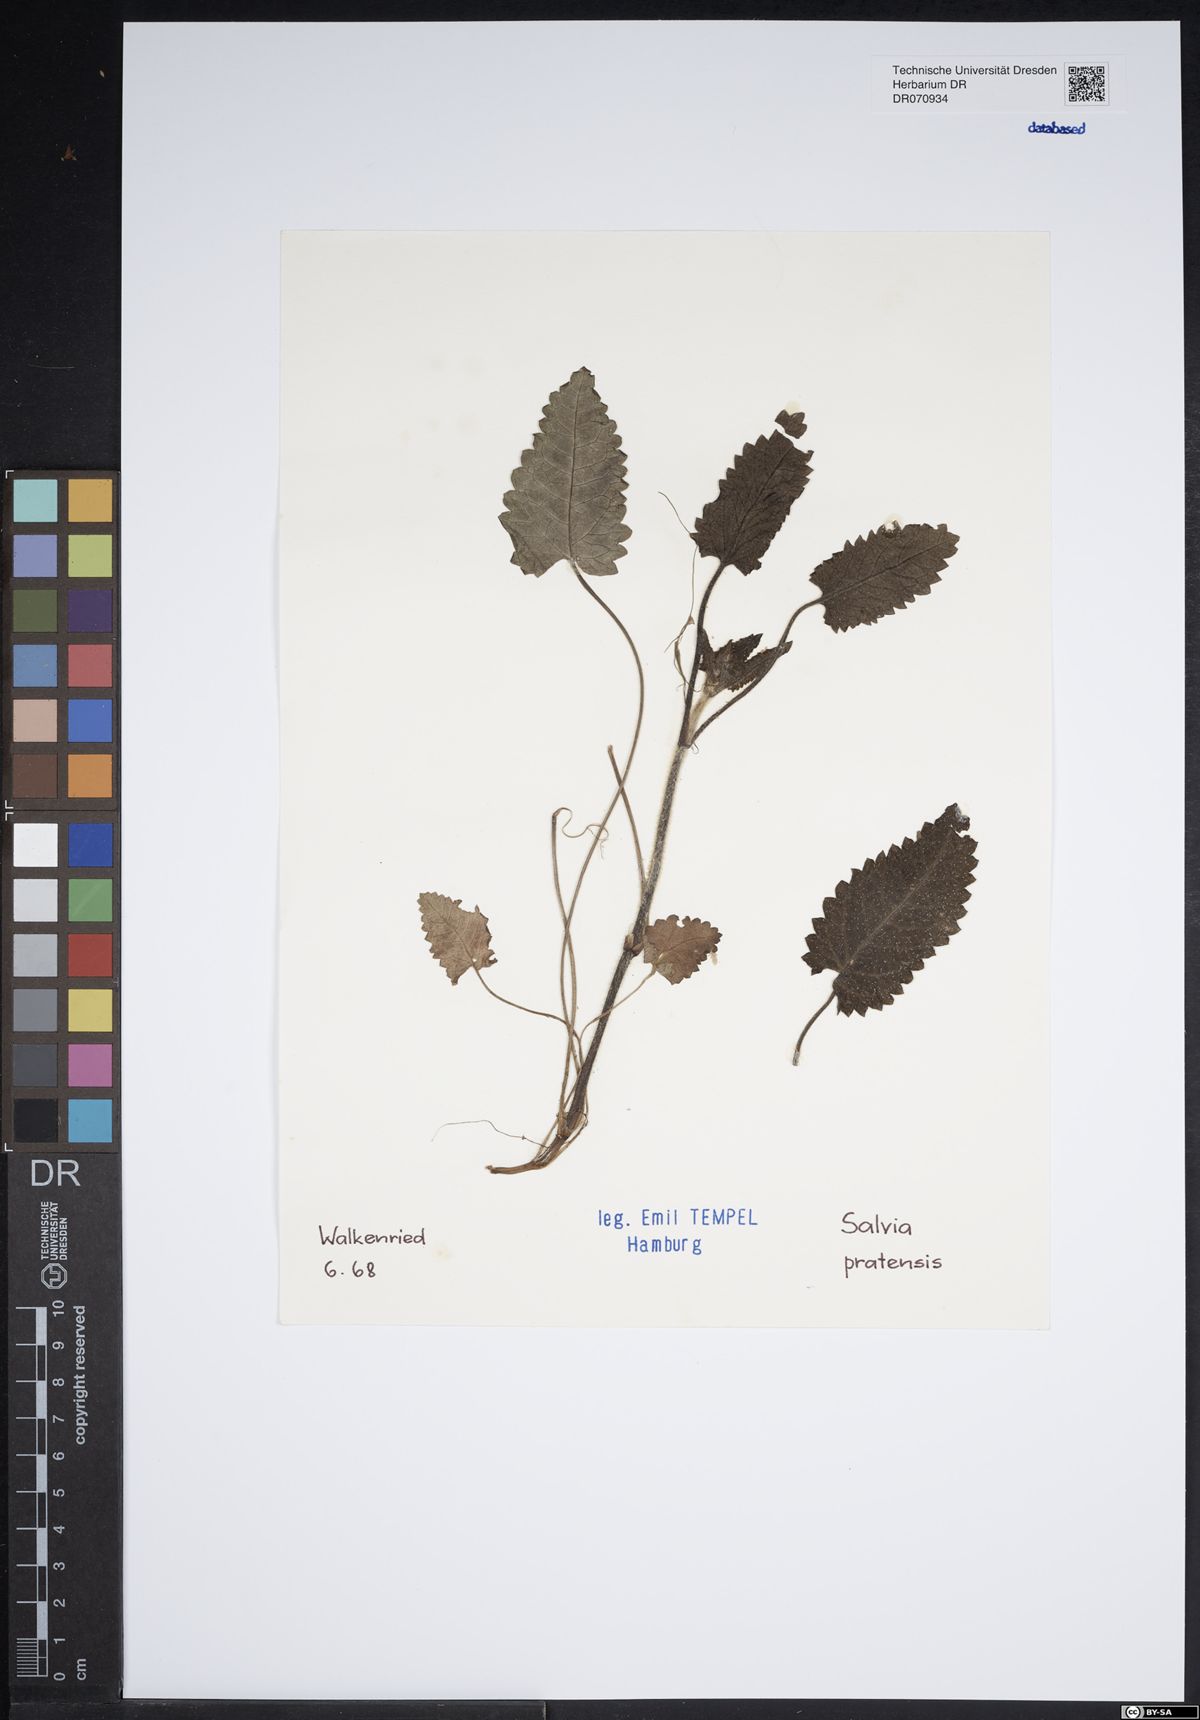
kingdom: Plantae
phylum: Tracheophyta
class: Magnoliopsida
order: Lamiales
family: Lamiaceae
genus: Salvia
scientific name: Salvia pratensis
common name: Meadow sage
